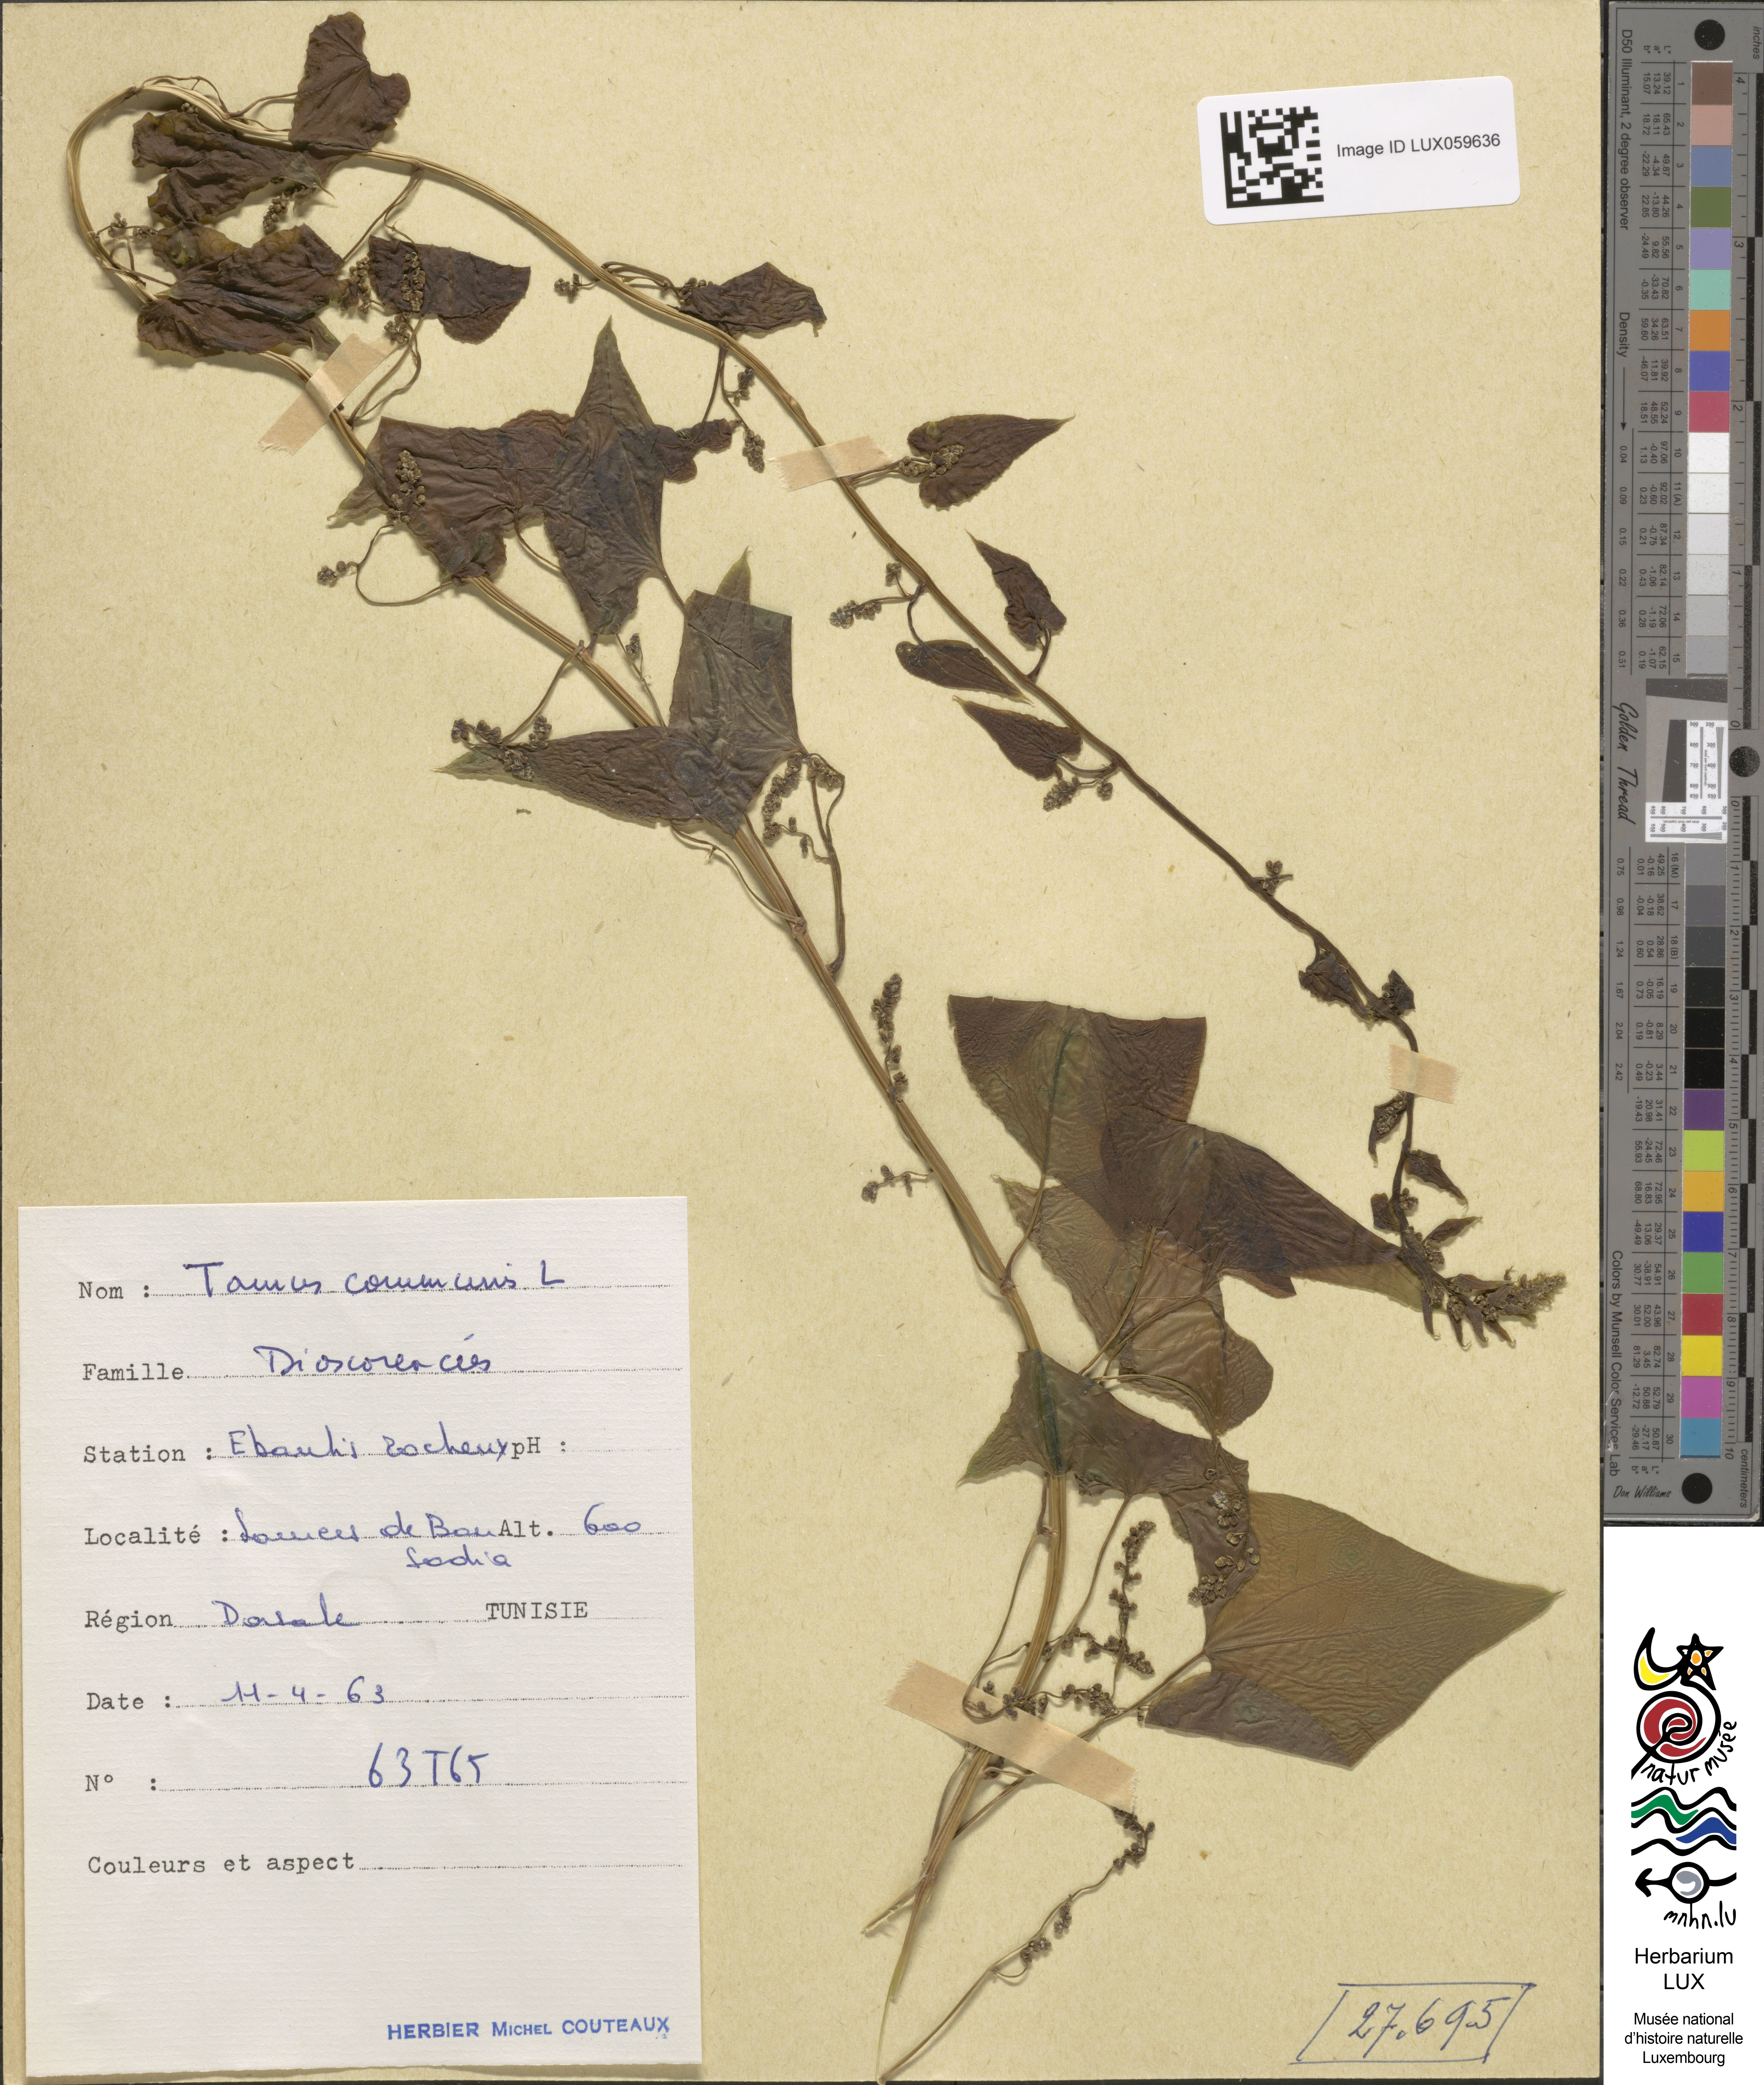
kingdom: Plantae
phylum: Tracheophyta
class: Liliopsida
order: Dioscoreales
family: Dioscoreaceae
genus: Dioscorea
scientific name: Dioscorea communis
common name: Black-bindweed
